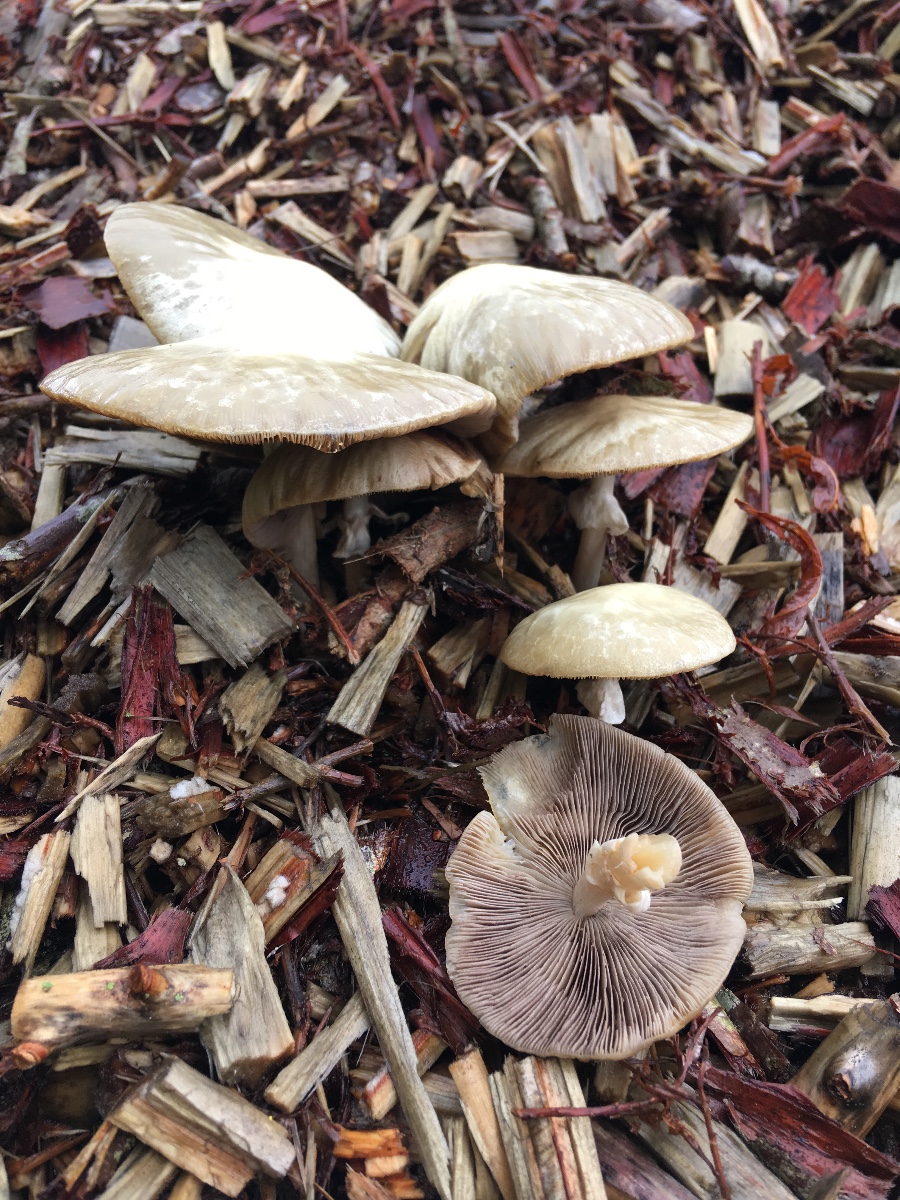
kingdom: Fungi
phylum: Basidiomycota
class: Agaricomycetes
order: Agaricales
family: Strophariaceae
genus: Agrocybe
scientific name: Agrocybe praecox
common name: tidlig agerhat
